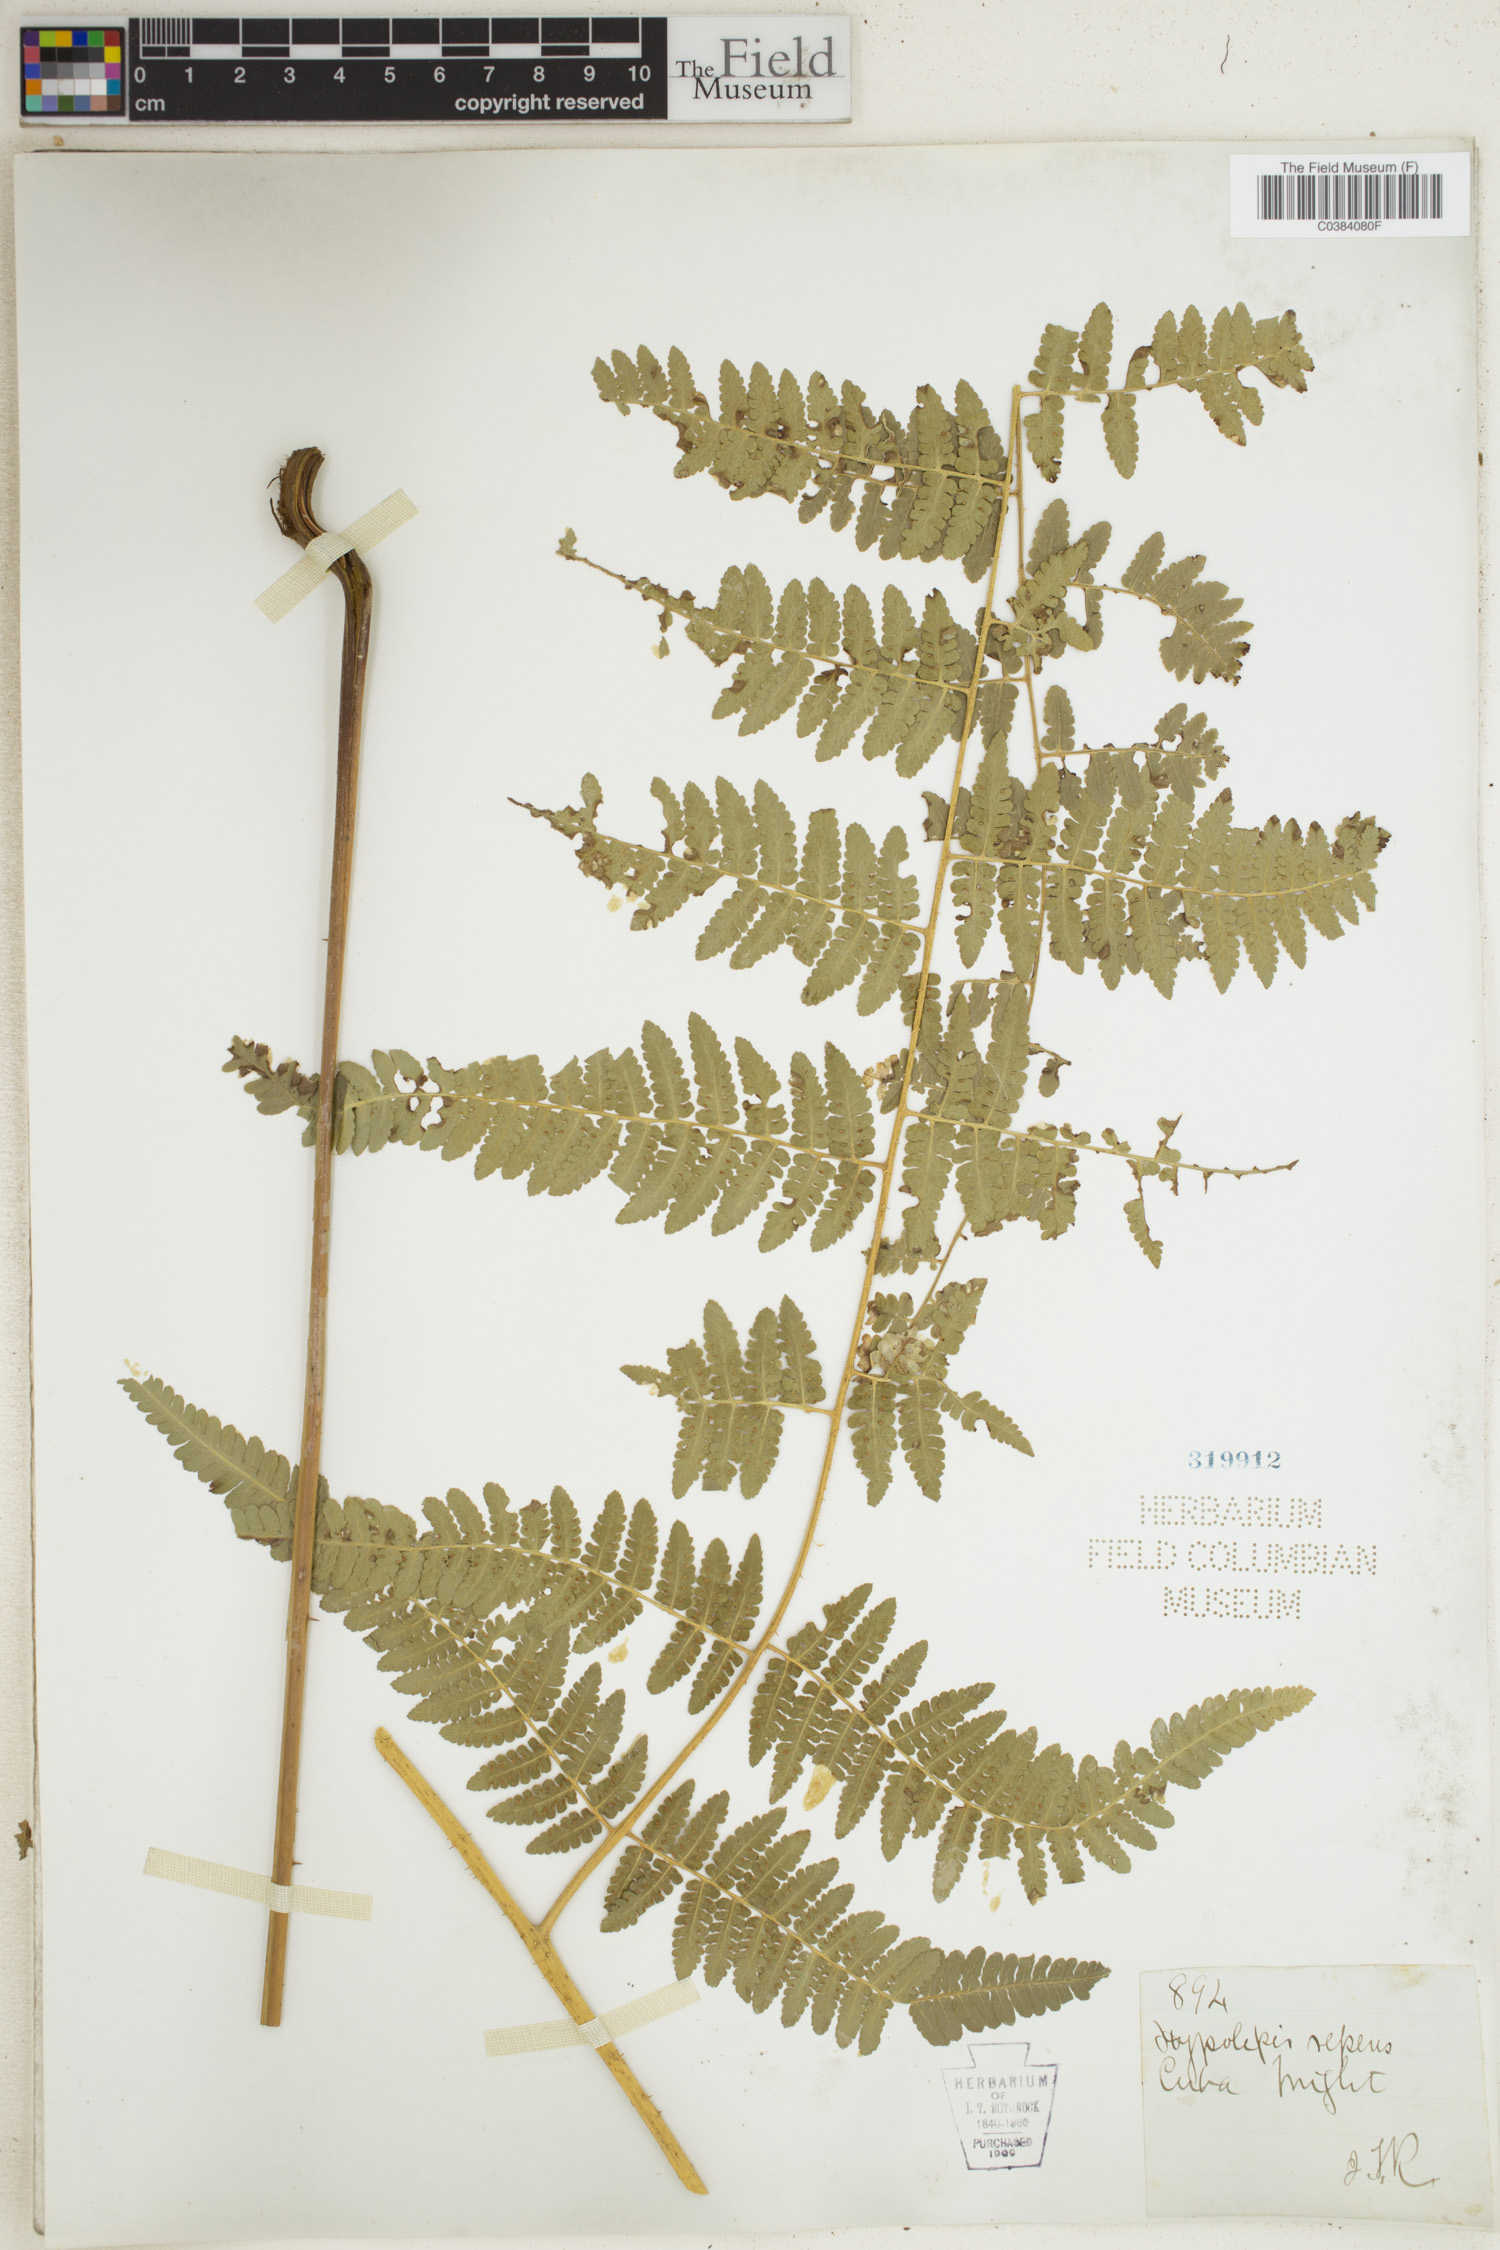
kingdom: Plantae
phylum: Tracheophyta
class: Polypodiopsida
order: Polypodiales
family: Dennstaedtiaceae
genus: Hypolepis
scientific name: Hypolepis repens
